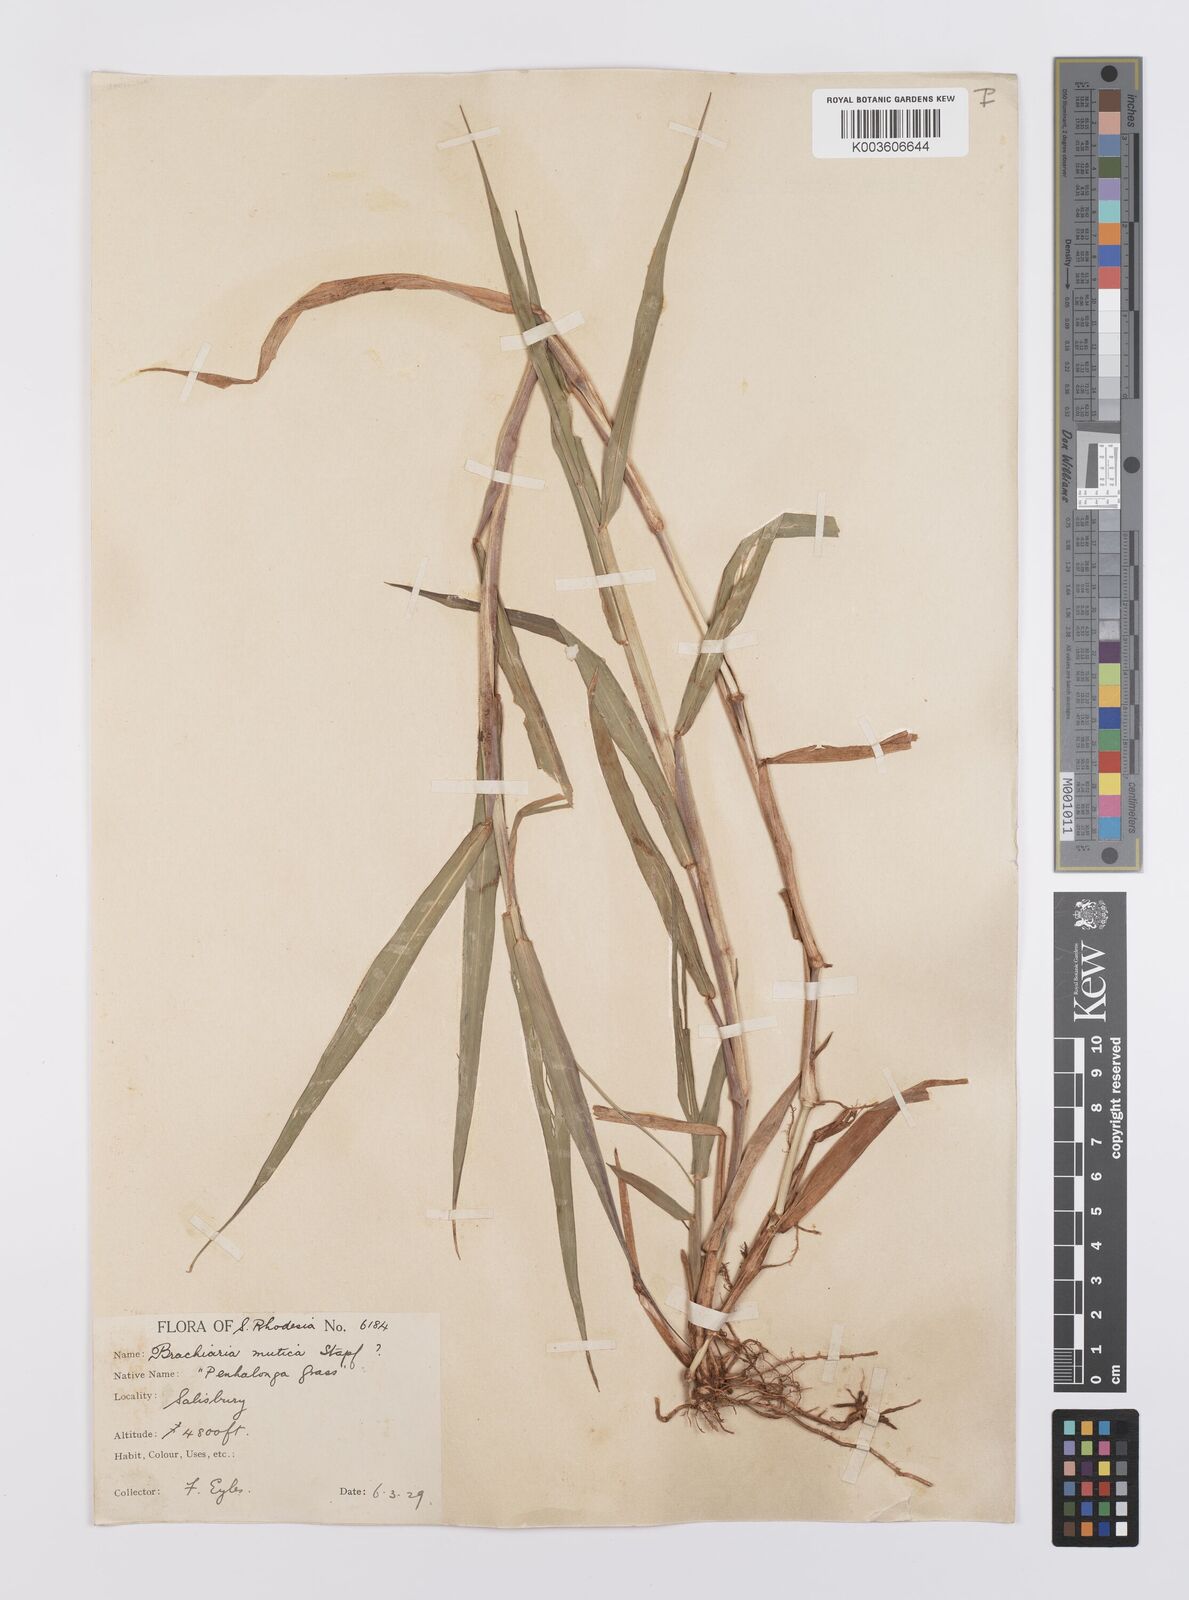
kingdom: Plantae
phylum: Tracheophyta
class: Liliopsida
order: Poales
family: Poaceae
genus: Urochloa
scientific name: Urochloa mutica
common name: Para grass
